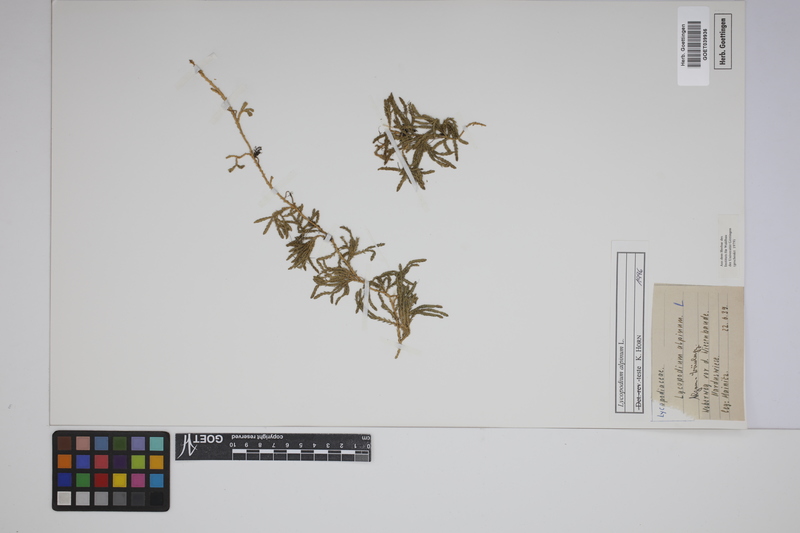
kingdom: Plantae
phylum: Tracheophyta
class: Lycopodiopsida
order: Lycopodiales
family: Lycopodiaceae
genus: Diphasiastrum
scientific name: Diphasiastrum alpinum
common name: Alpine clubmoss
